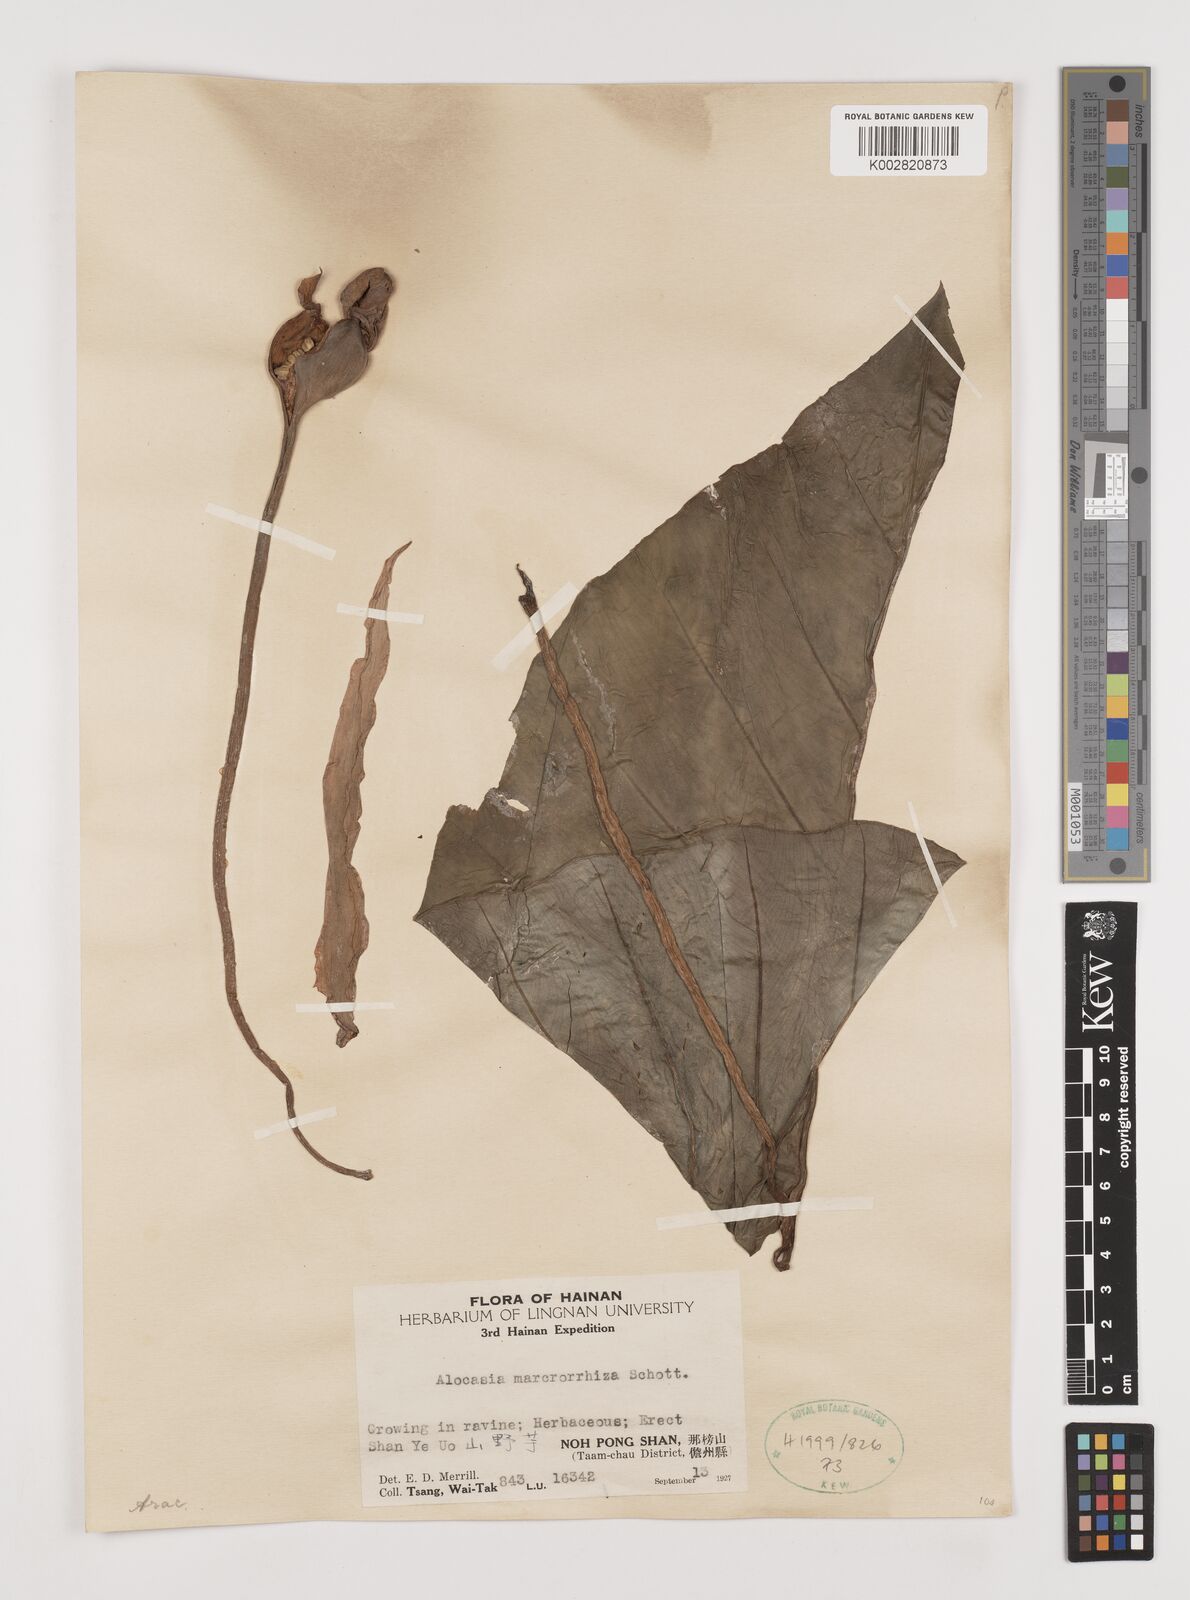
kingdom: Plantae
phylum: Tracheophyta
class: Liliopsida
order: Alismatales
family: Araceae
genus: Alocasia
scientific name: Alocasia macrorrhizos
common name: Giant taro
